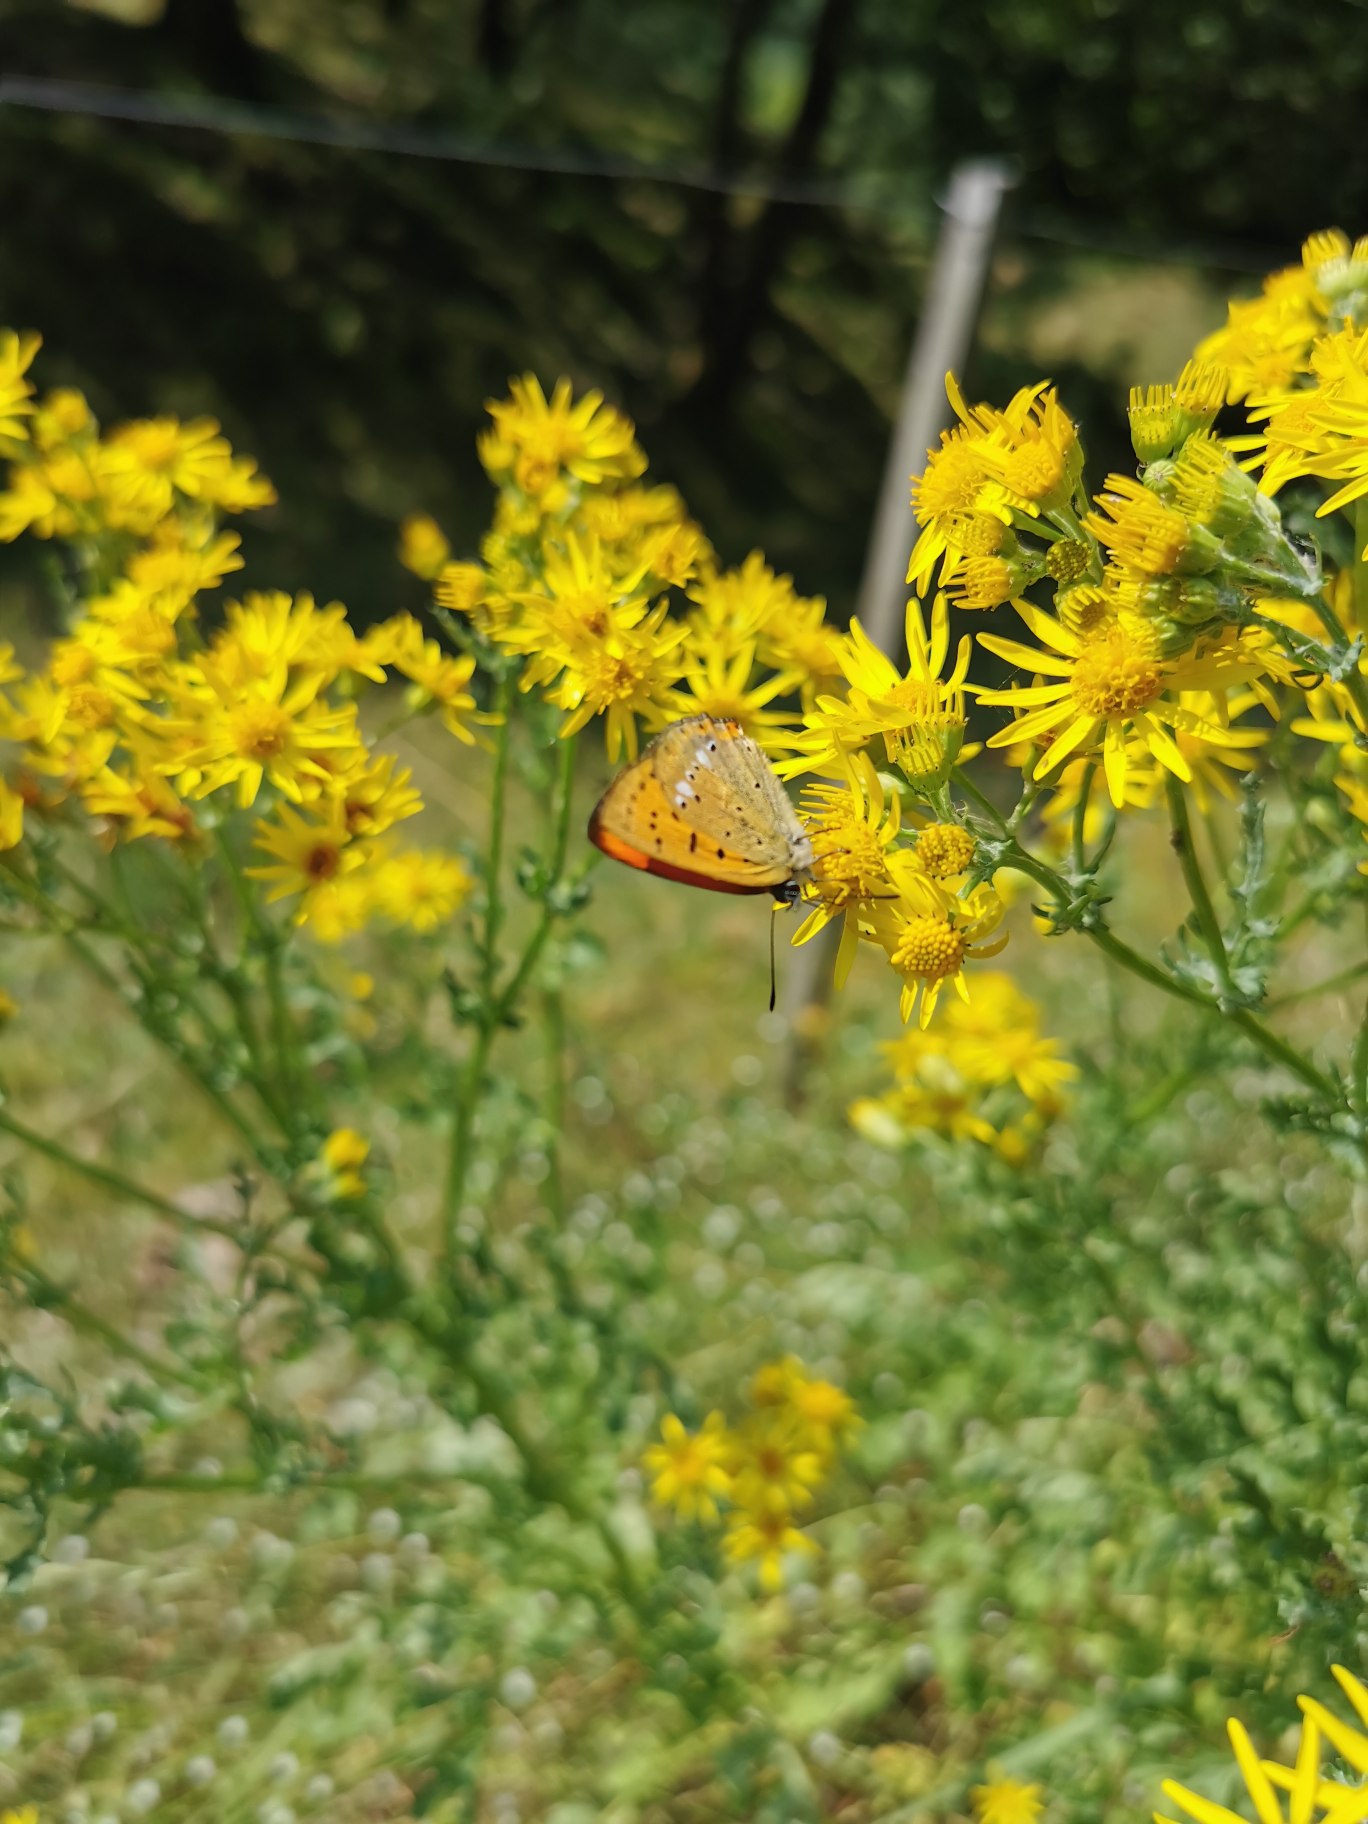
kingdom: Animalia
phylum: Arthropoda
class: Insecta
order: Lepidoptera
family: Lycaenidae
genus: Lycaena
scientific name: Lycaena virgaureae
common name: Dukatsommerfugl
